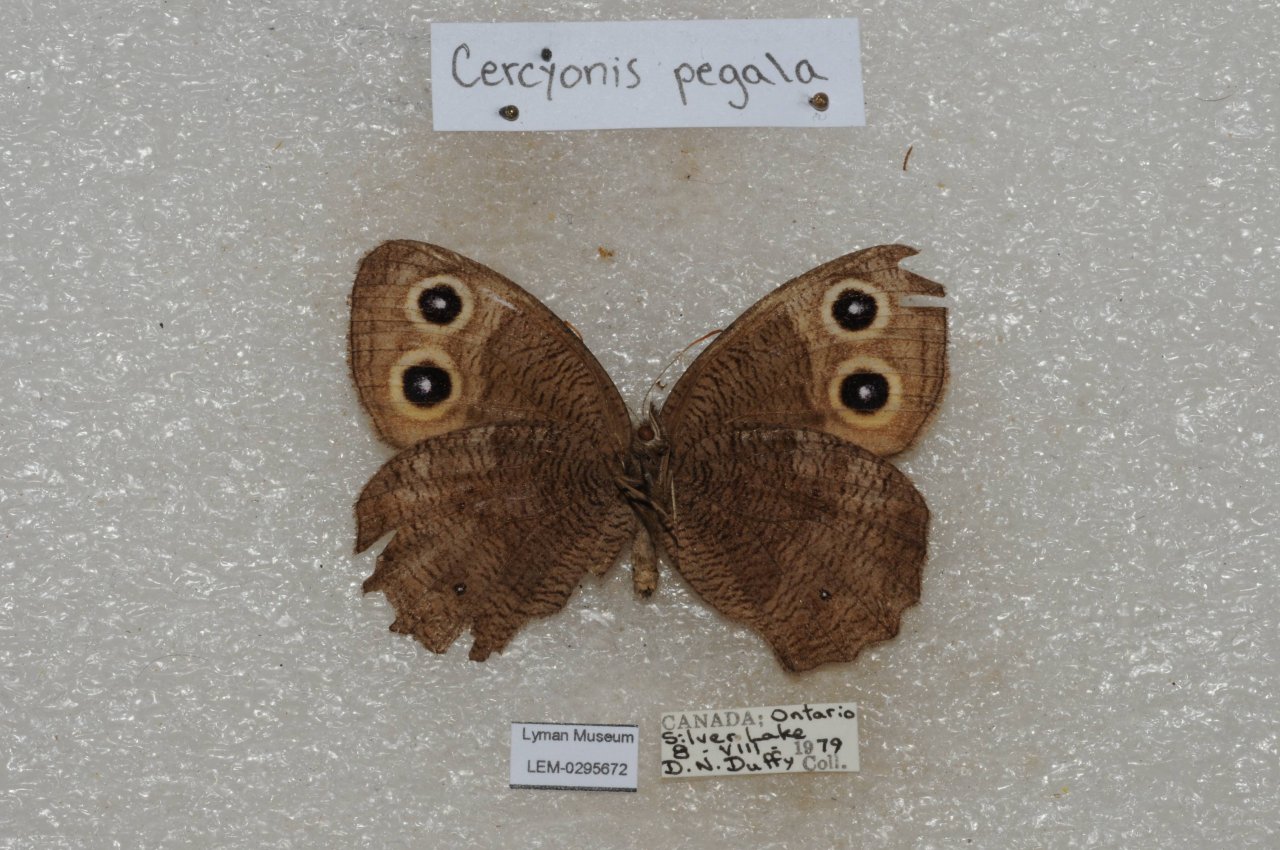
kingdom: Animalia
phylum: Arthropoda
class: Insecta
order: Lepidoptera
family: Nymphalidae
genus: Cercyonis
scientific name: Cercyonis pegala
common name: Common Wood-Nymph
